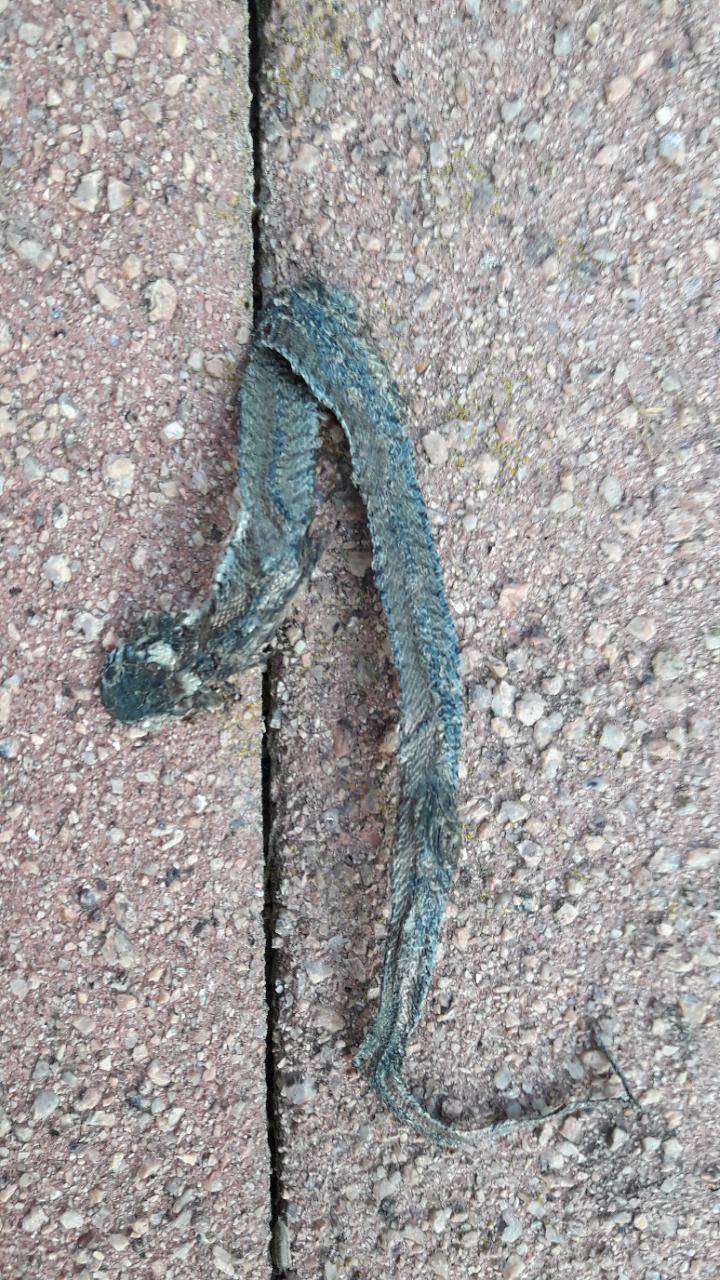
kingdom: Animalia
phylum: Chordata
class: Squamata
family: Colubridae
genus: Natrix
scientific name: Natrix natrix
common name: Grass snake
